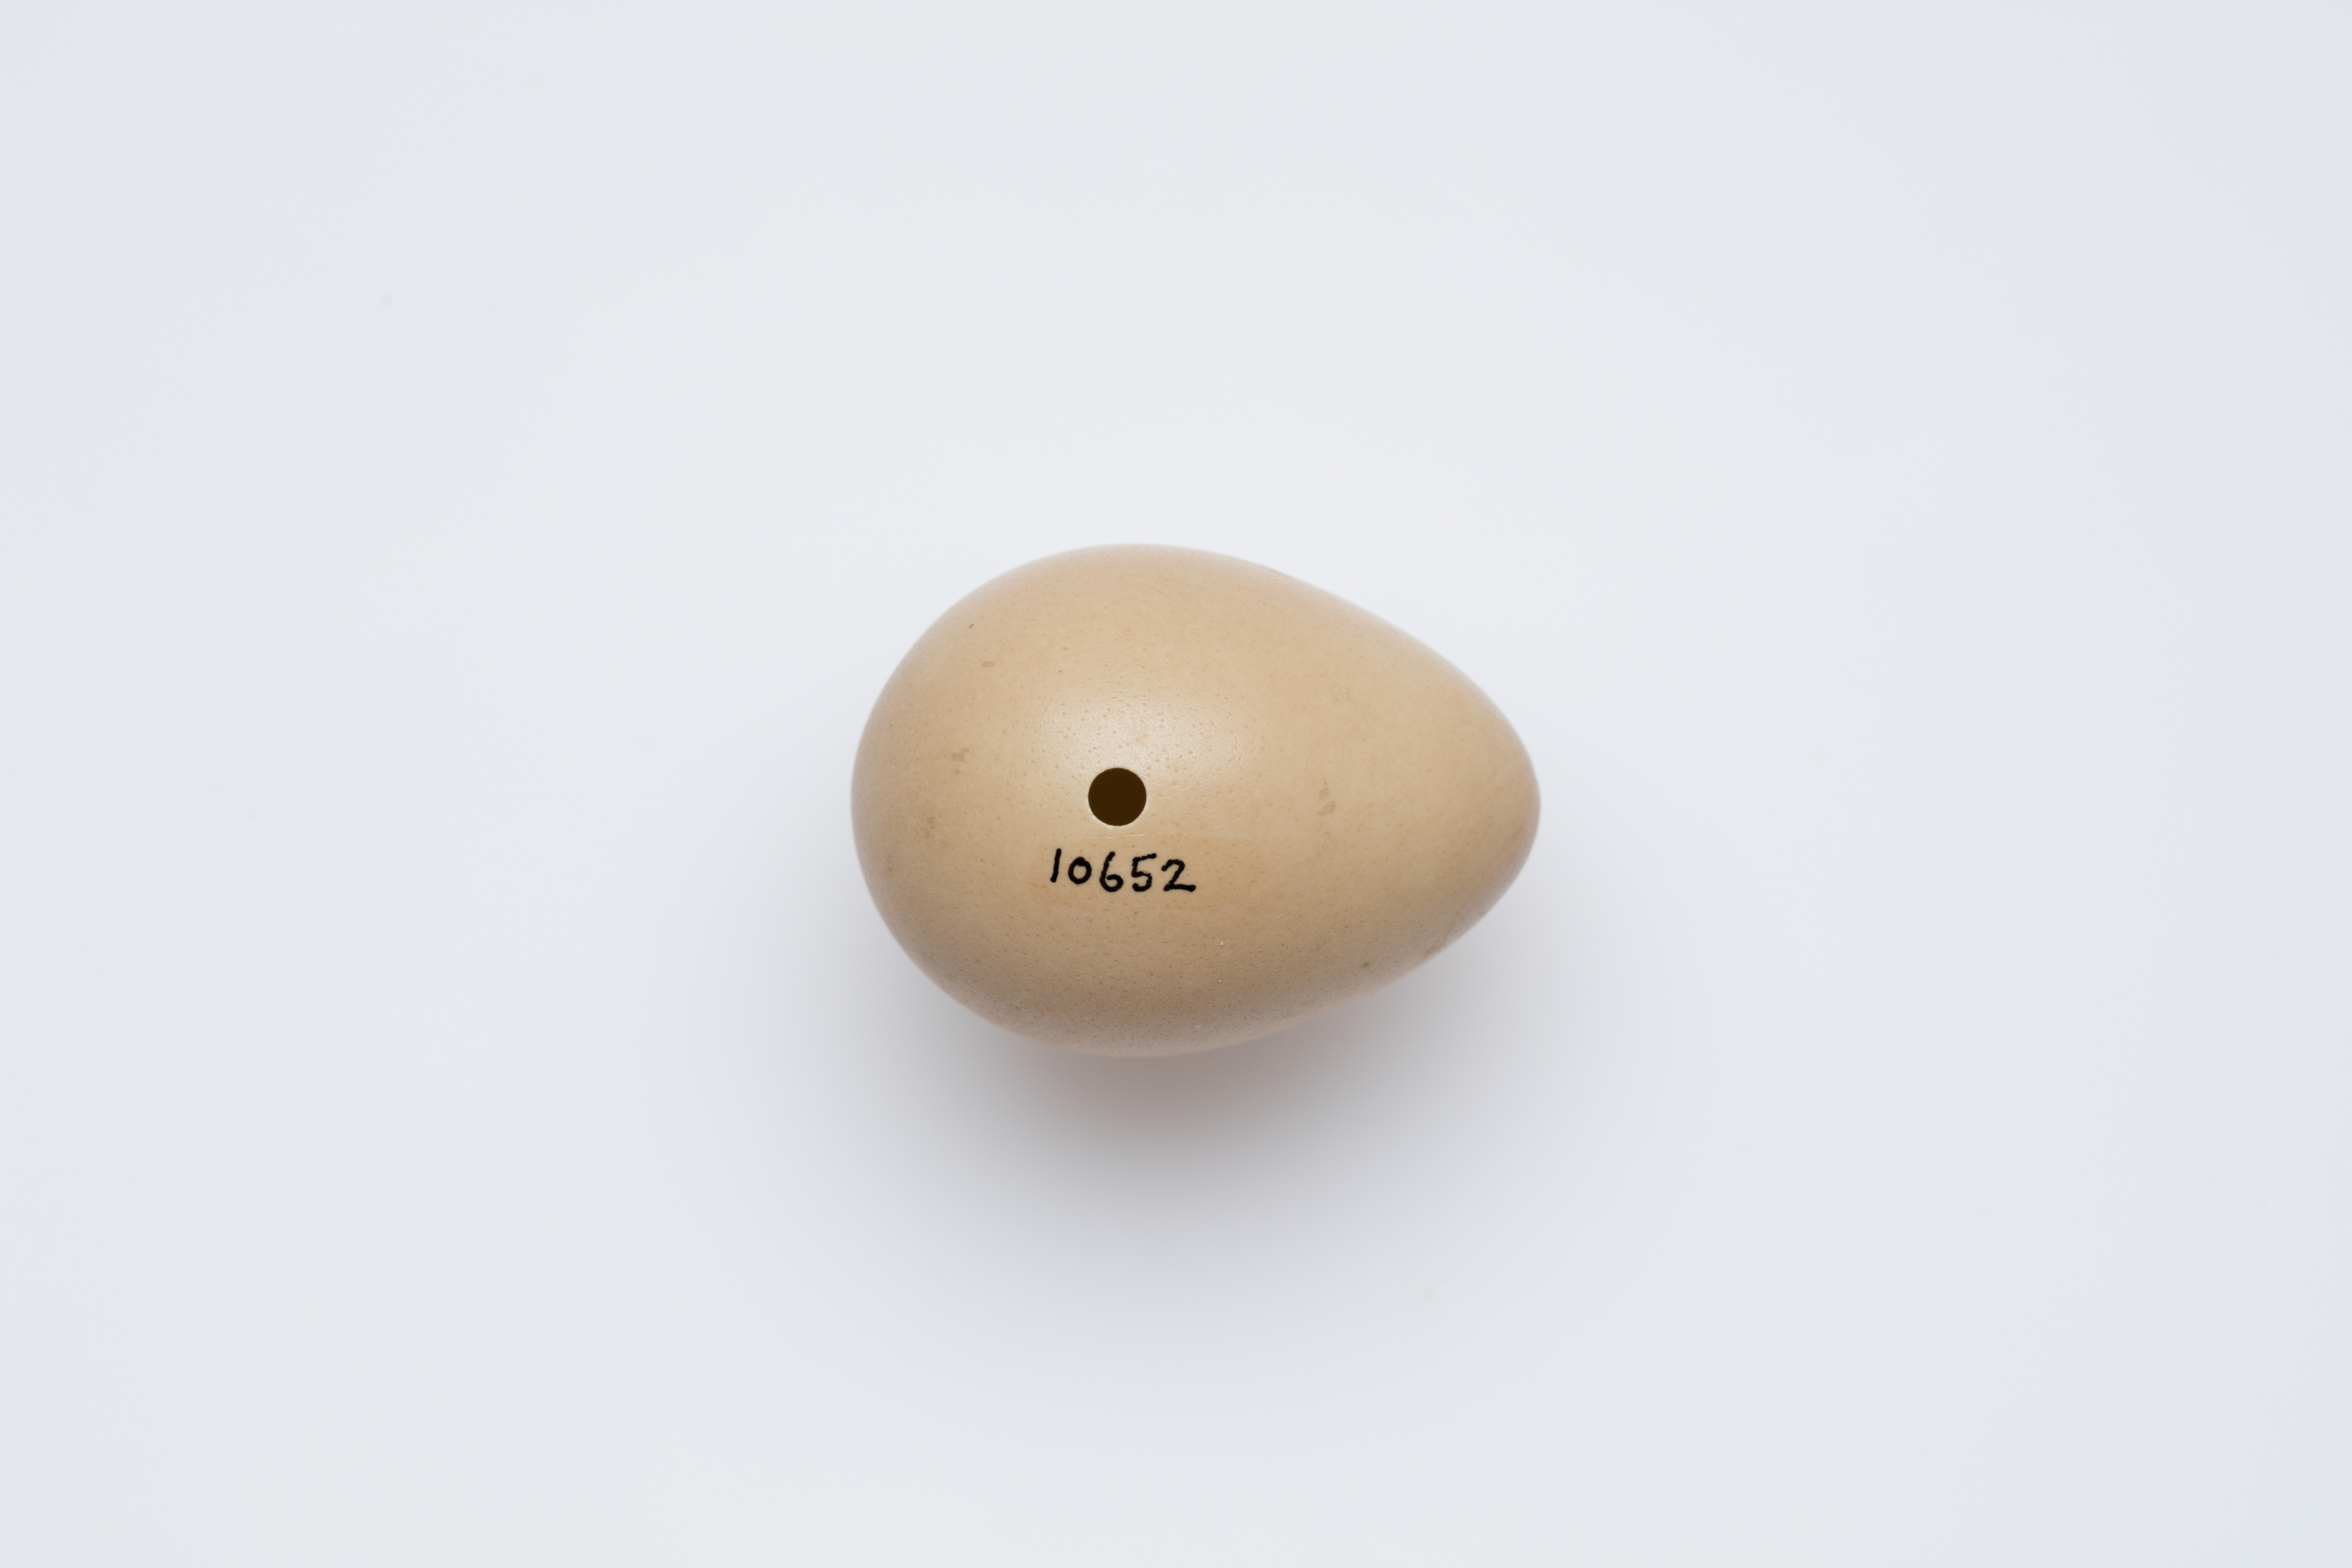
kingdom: Animalia
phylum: Chordata
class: Aves
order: Galliformes
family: Phasianidae
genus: Perdix
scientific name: Perdix perdix
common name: Grey partridge
